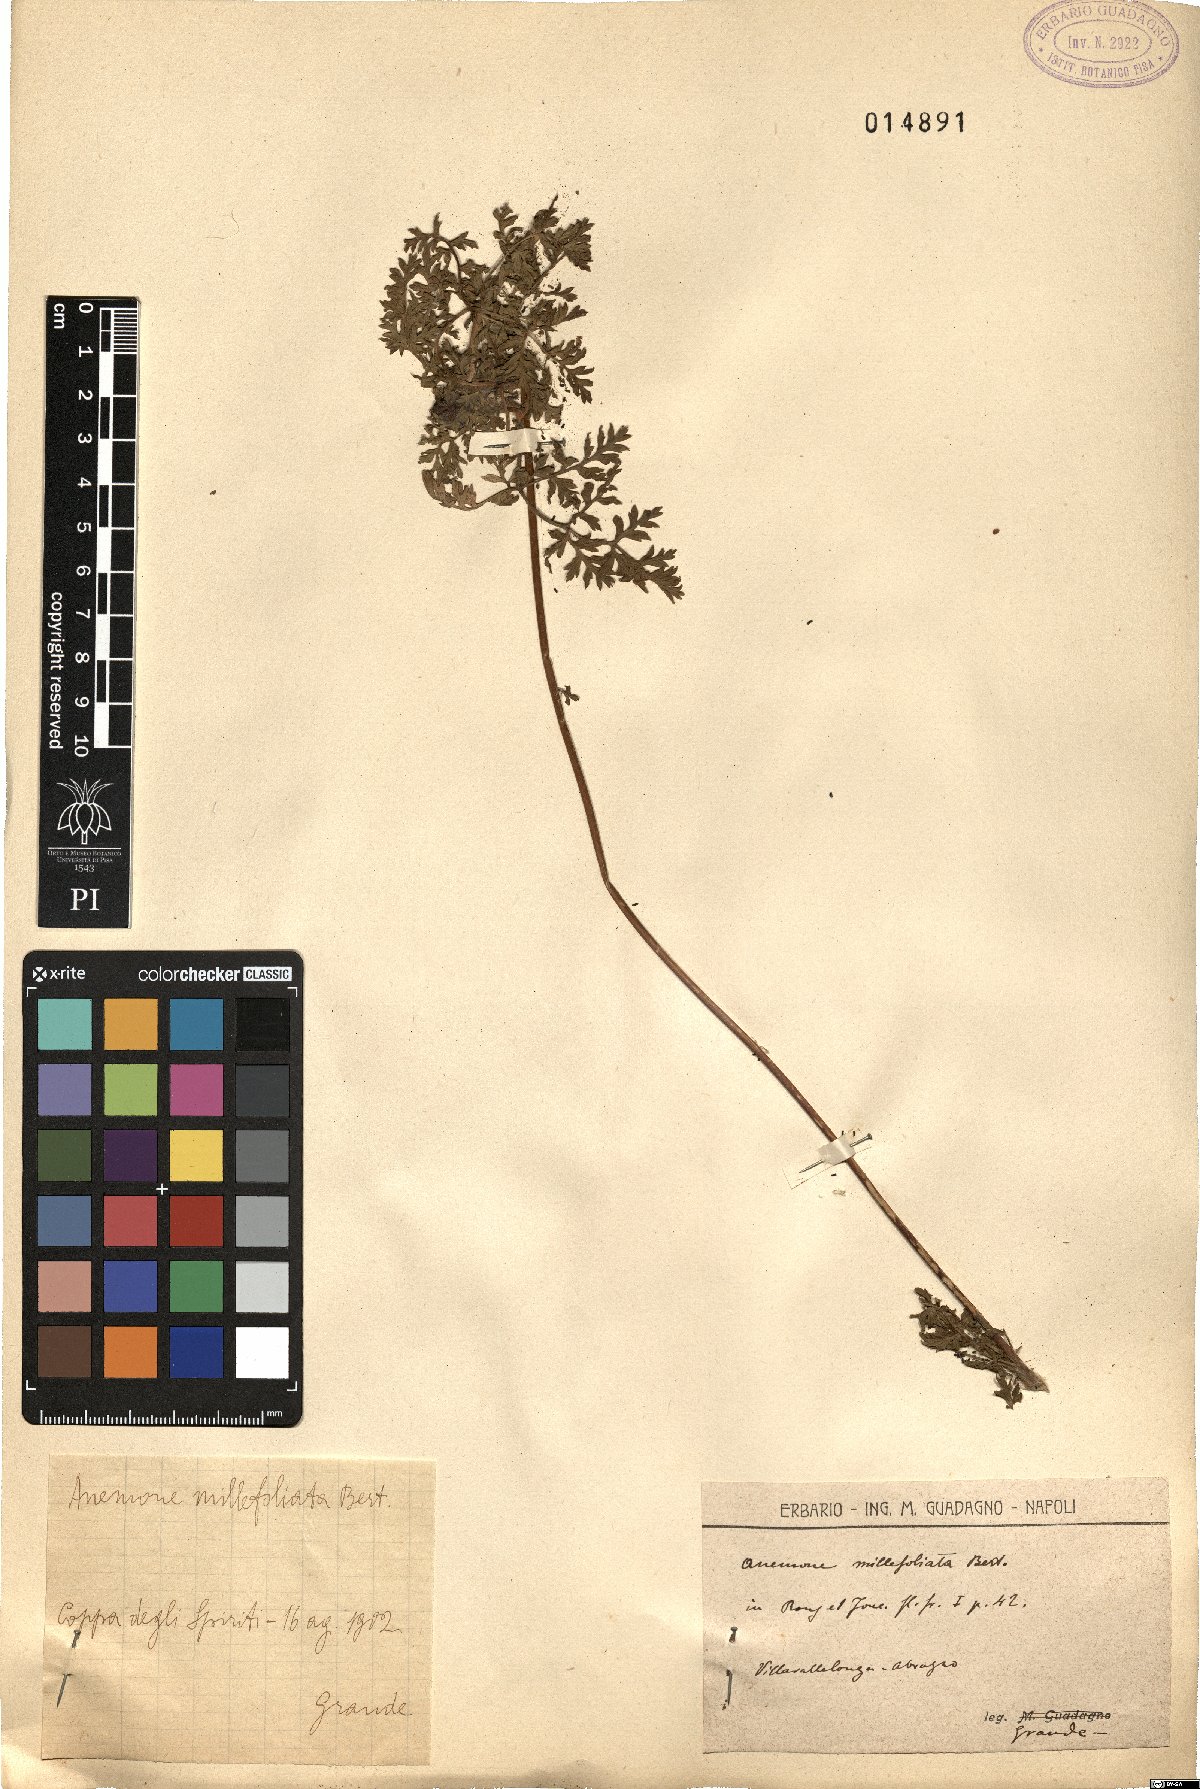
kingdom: Plantae
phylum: Tracheophyta
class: Magnoliopsida
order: Ranunculales
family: Ranunculaceae
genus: Pulsatilla
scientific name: Pulsatilla alpina
